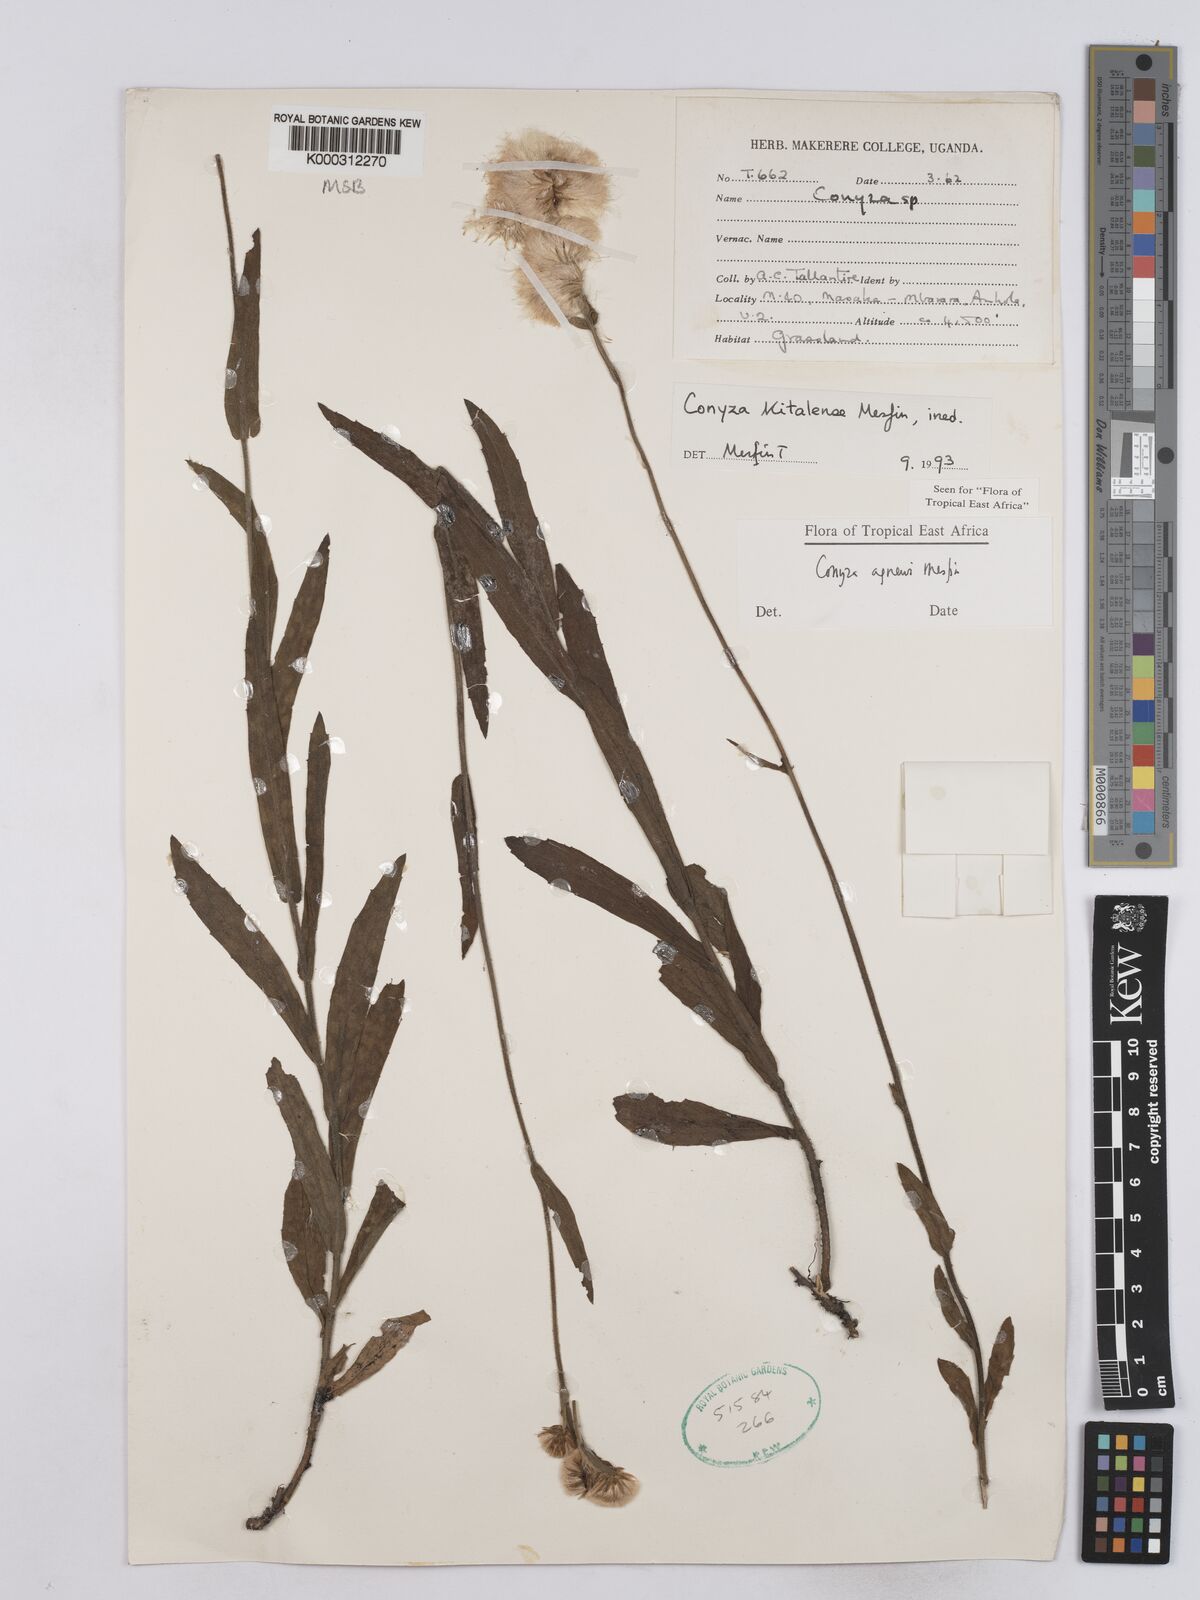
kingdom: Plantae
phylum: Tracheophyta
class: Magnoliopsida
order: Asterales
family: Asteraceae
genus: Conyza
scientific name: Conyza agnewii
